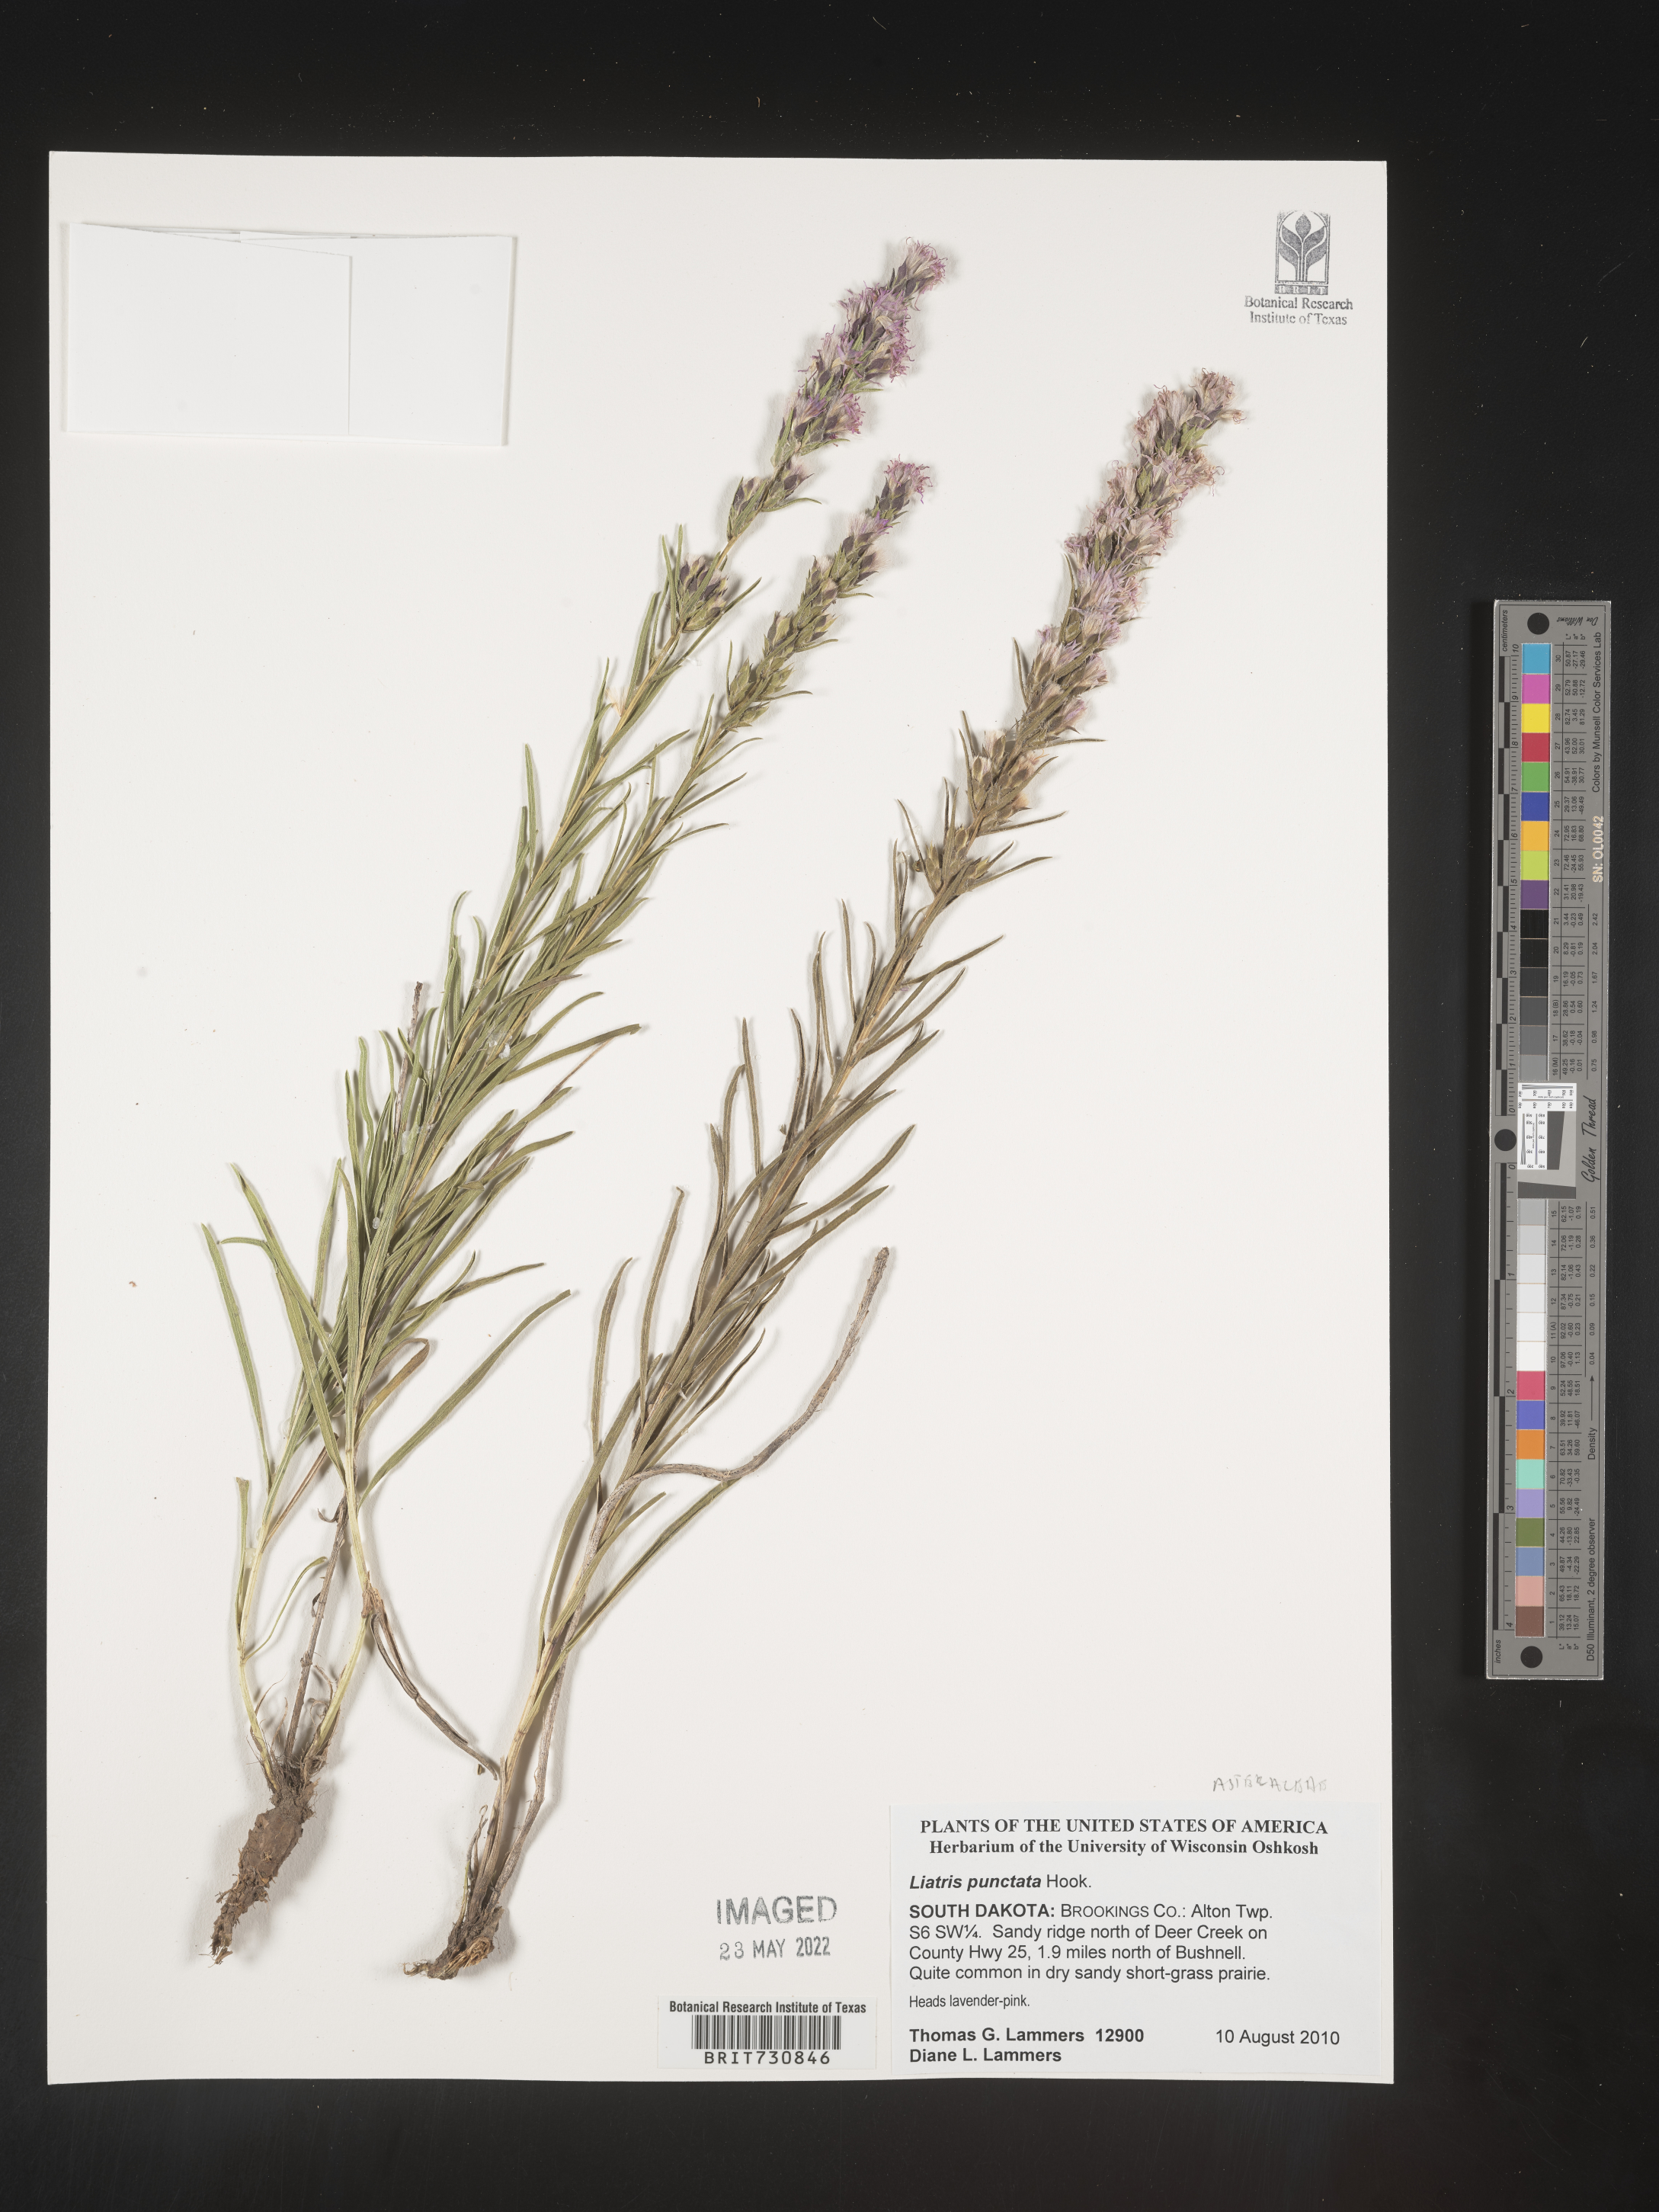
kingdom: Plantae
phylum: Tracheophyta
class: Magnoliopsida
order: Asterales
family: Asteraceae
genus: Liatris
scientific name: Liatris punctata
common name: Dotted gayfeather
